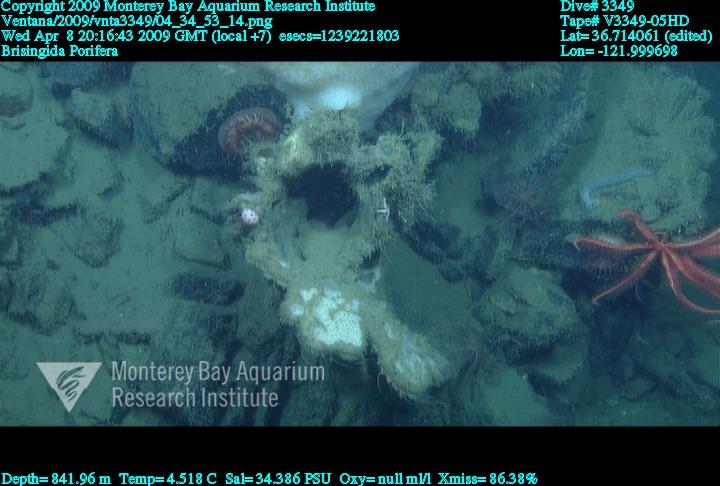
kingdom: Animalia
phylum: Porifera
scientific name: Porifera
